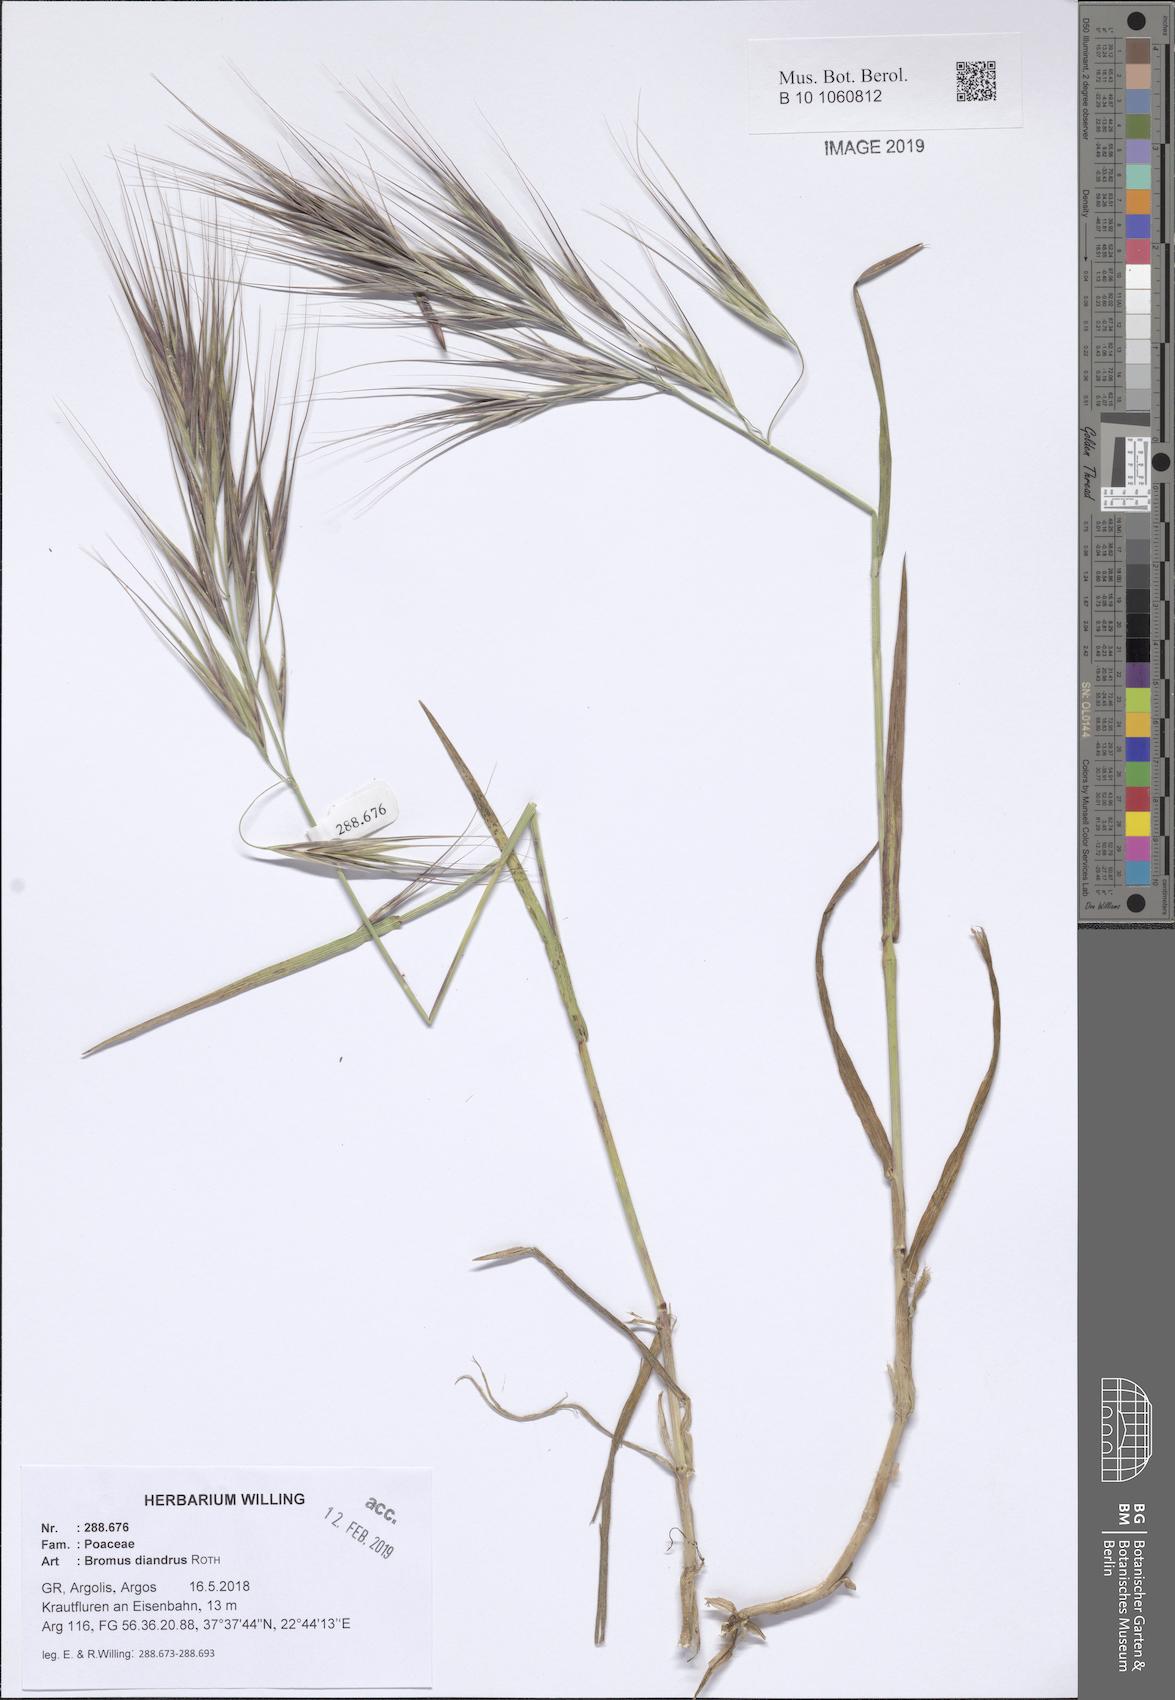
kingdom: Plantae
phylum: Tracheophyta
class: Liliopsida
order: Poales
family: Poaceae
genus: Bromus
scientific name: Bromus diandrus
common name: Ripgut brome
